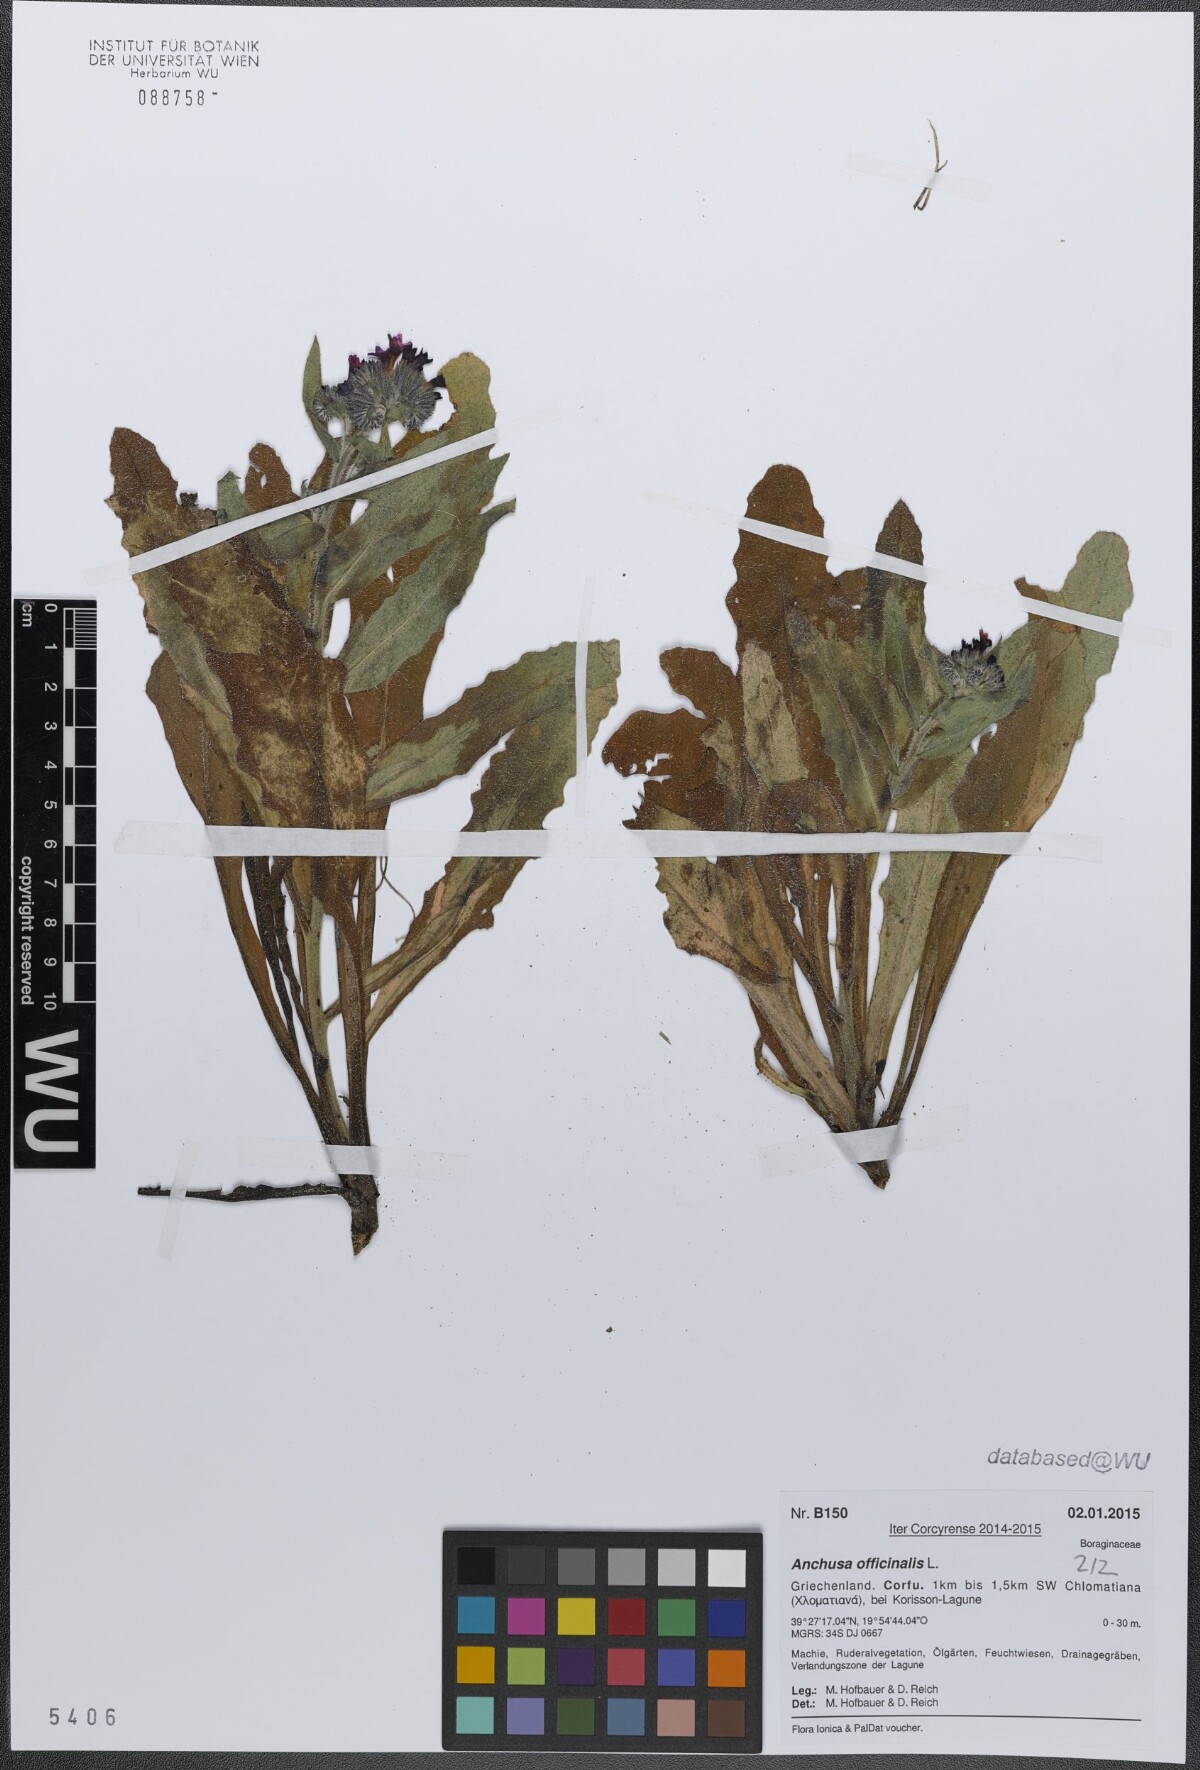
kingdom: Plantae
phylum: Tracheophyta
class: Magnoliopsida
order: Boraginales
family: Boraginaceae
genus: Anchusa
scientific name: Anchusa officinalis
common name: Alkanet
